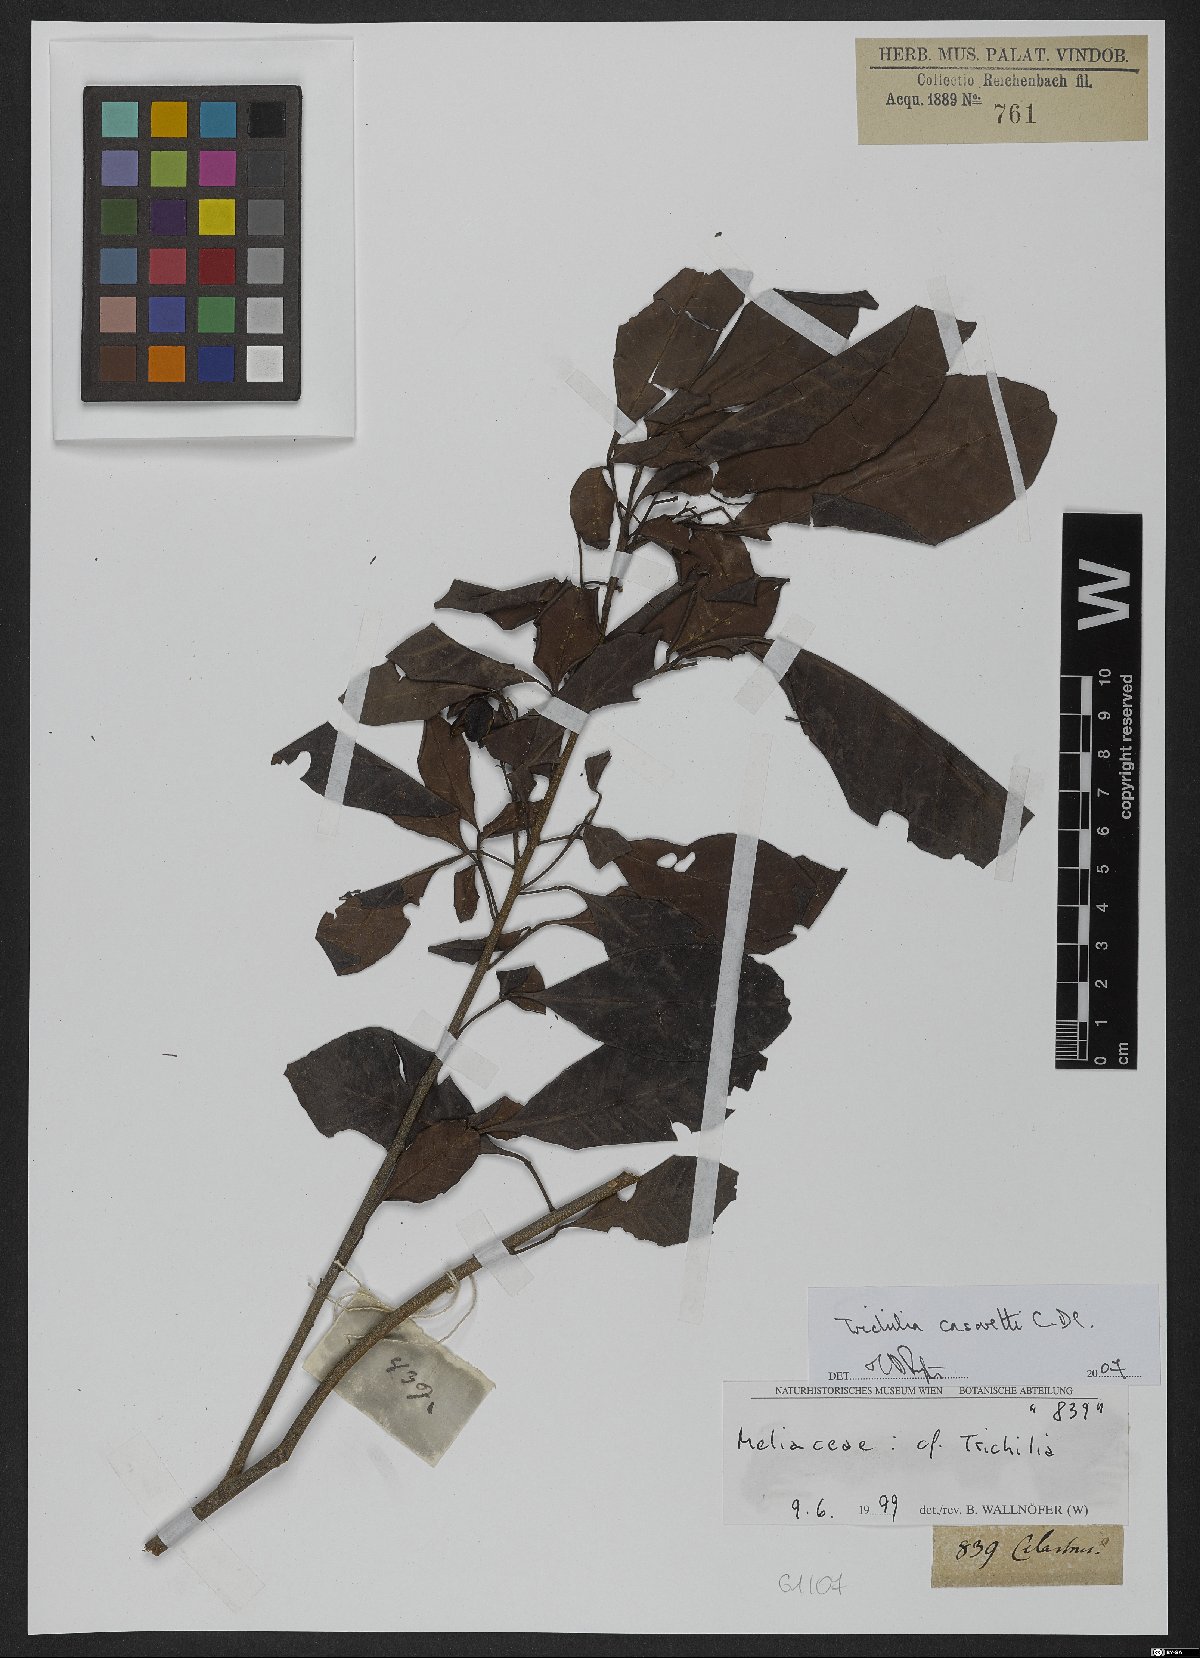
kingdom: Plantae
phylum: Tracheophyta
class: Magnoliopsida
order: Sapindales
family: Meliaceae
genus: Trichilia
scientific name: Trichilia casarettoi
